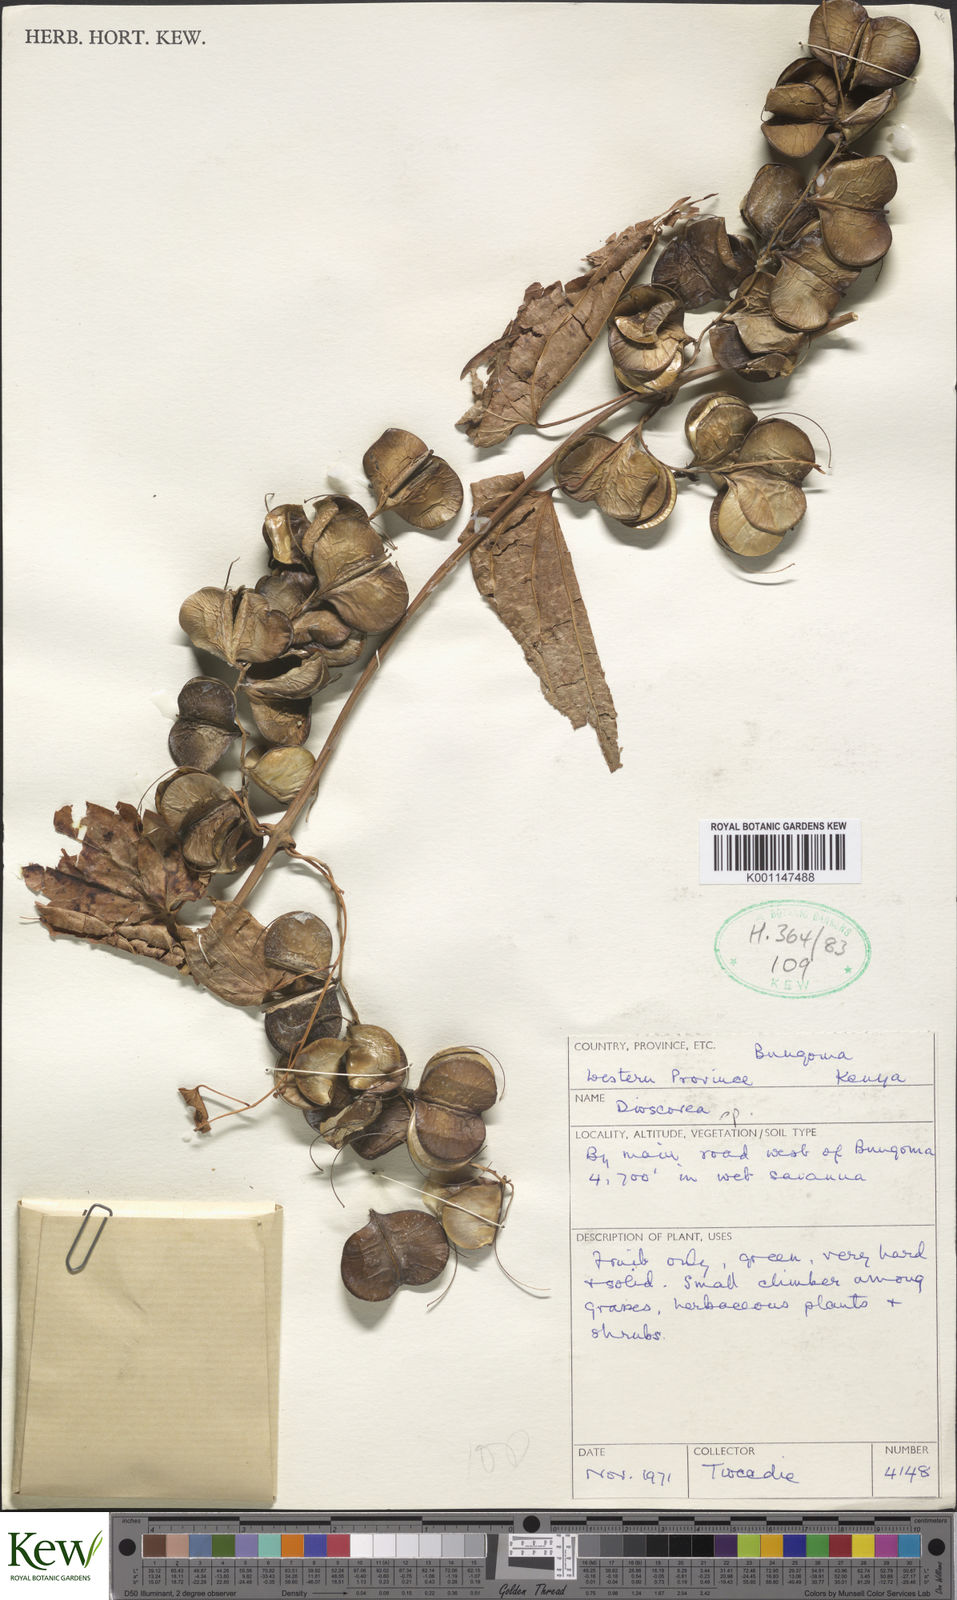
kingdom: Plantae
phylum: Tracheophyta
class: Liliopsida
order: Dioscoreales
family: Dioscoreaceae
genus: Dioscorea
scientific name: Dioscorea
